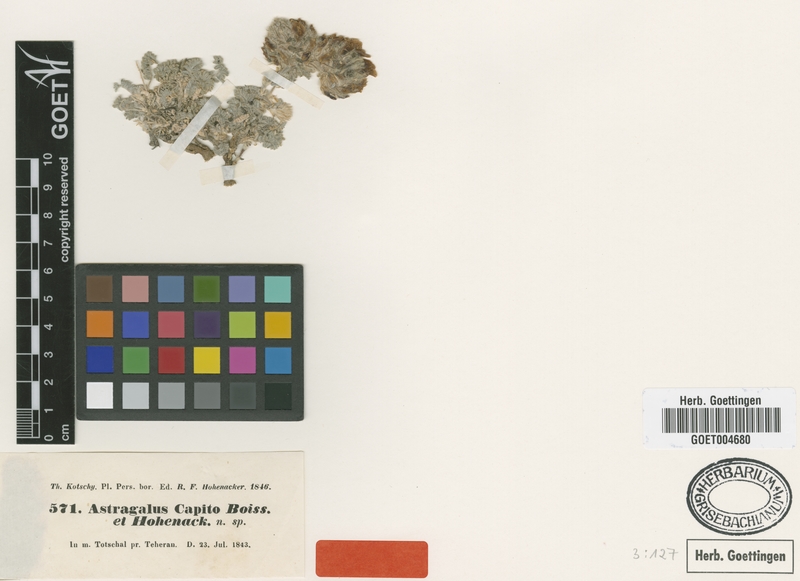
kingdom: Plantae
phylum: Tracheophyta
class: Magnoliopsida
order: Fabales
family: Fabaceae
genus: Astragalus
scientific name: Astragalus capito
